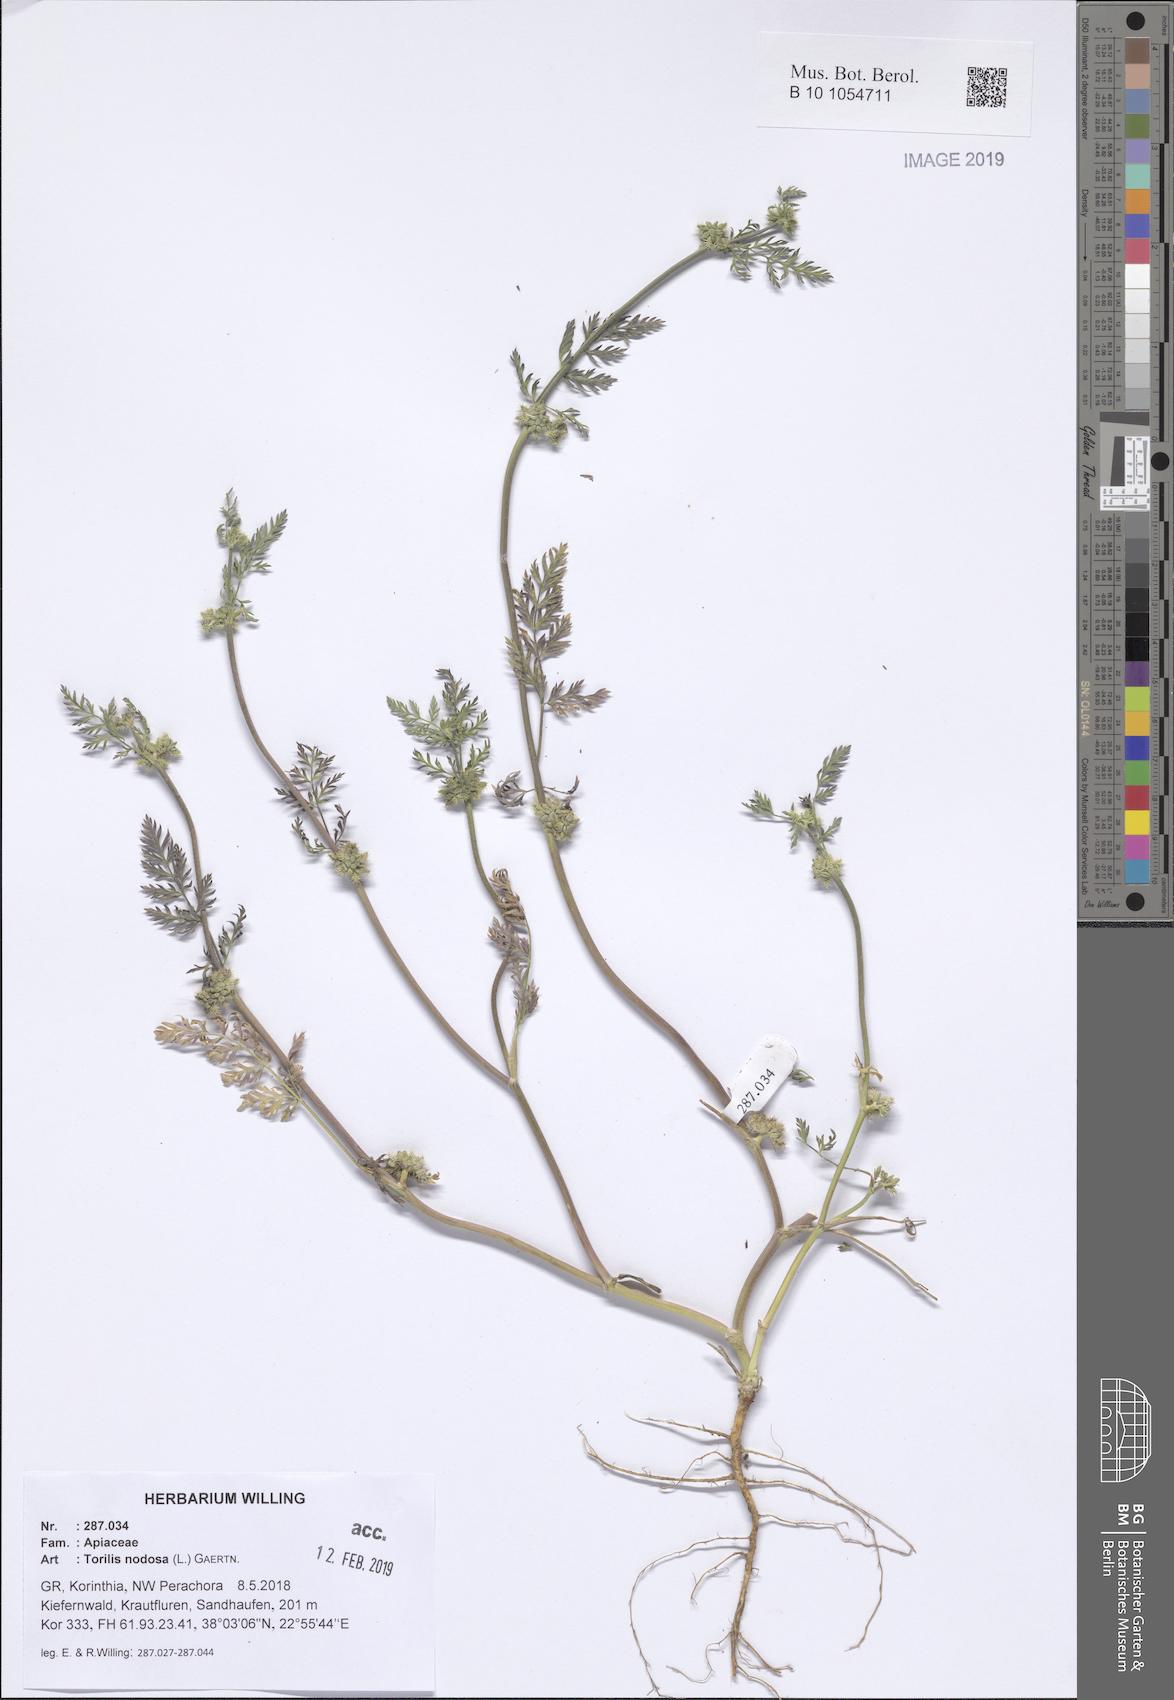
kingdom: Plantae
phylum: Tracheophyta
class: Magnoliopsida
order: Apiales
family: Apiaceae
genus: Torilis
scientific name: Torilis nodosa
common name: Knotted hedge-parsley
